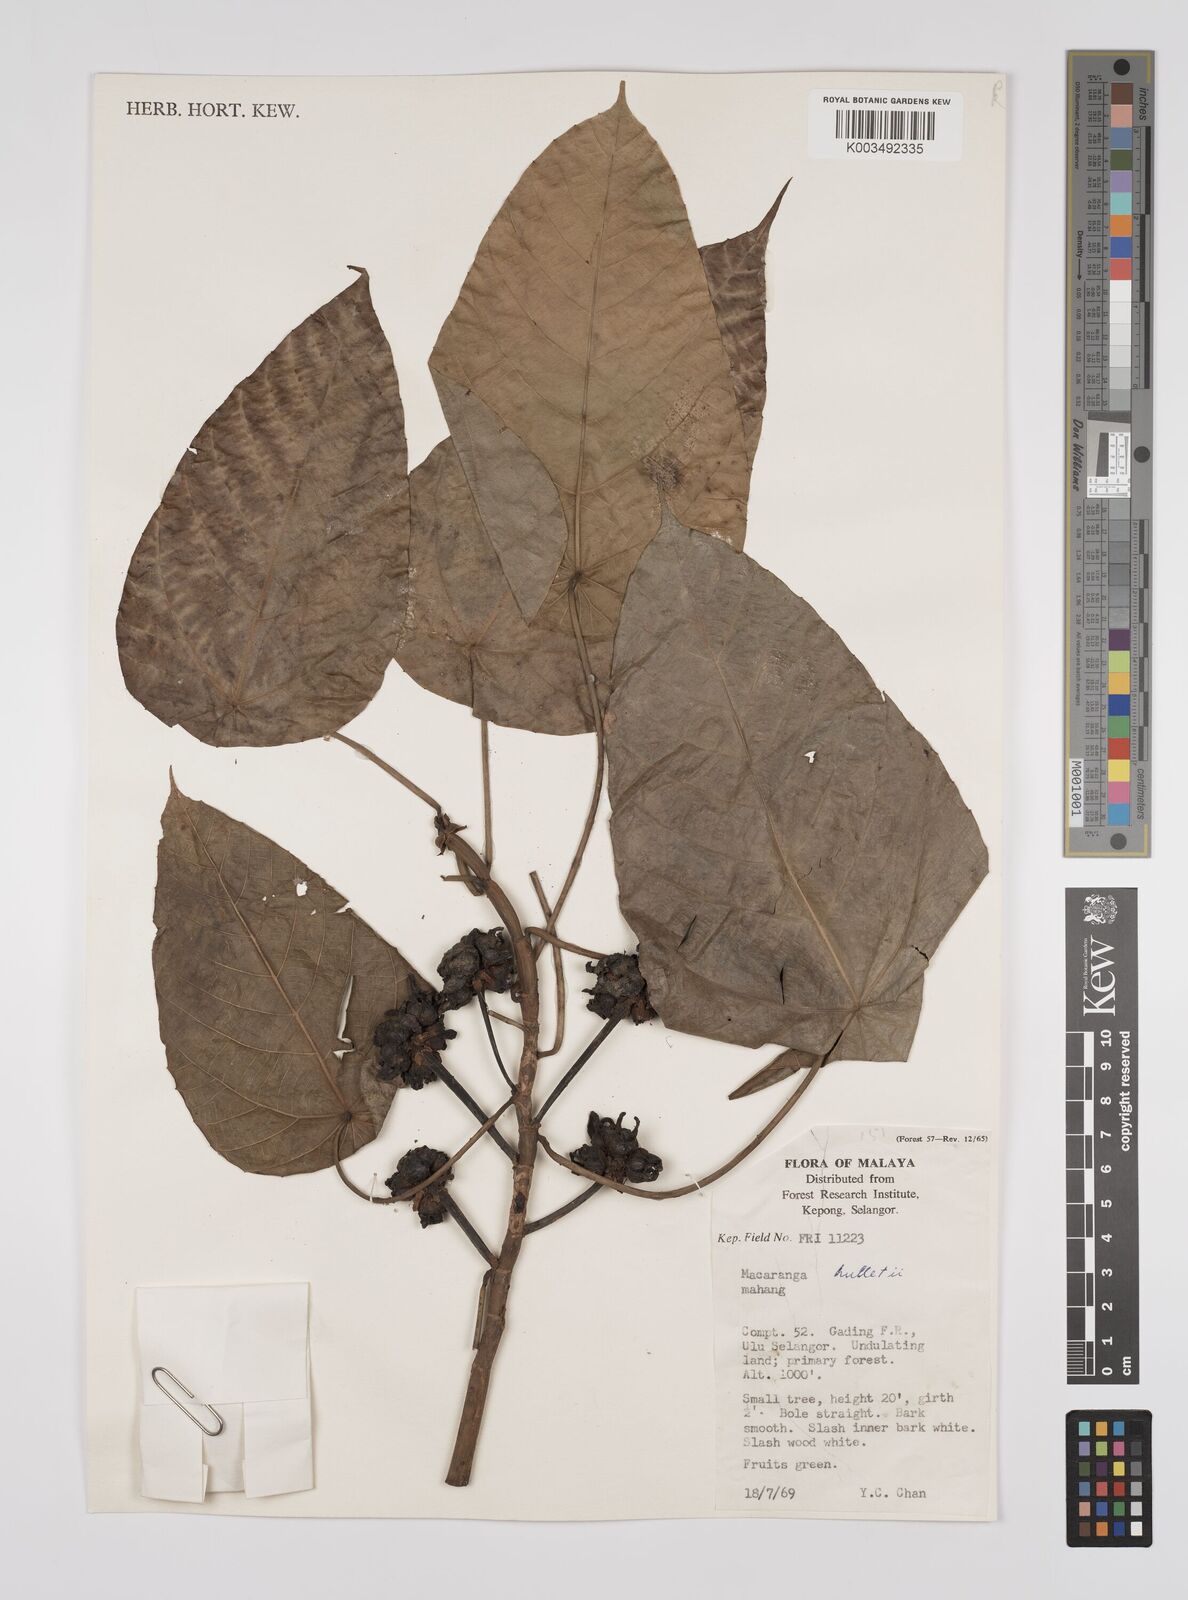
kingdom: Plantae
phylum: Tracheophyta
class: Magnoliopsida
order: Malpighiales
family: Euphorbiaceae
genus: Macaranga
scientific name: Macaranga hullettii
